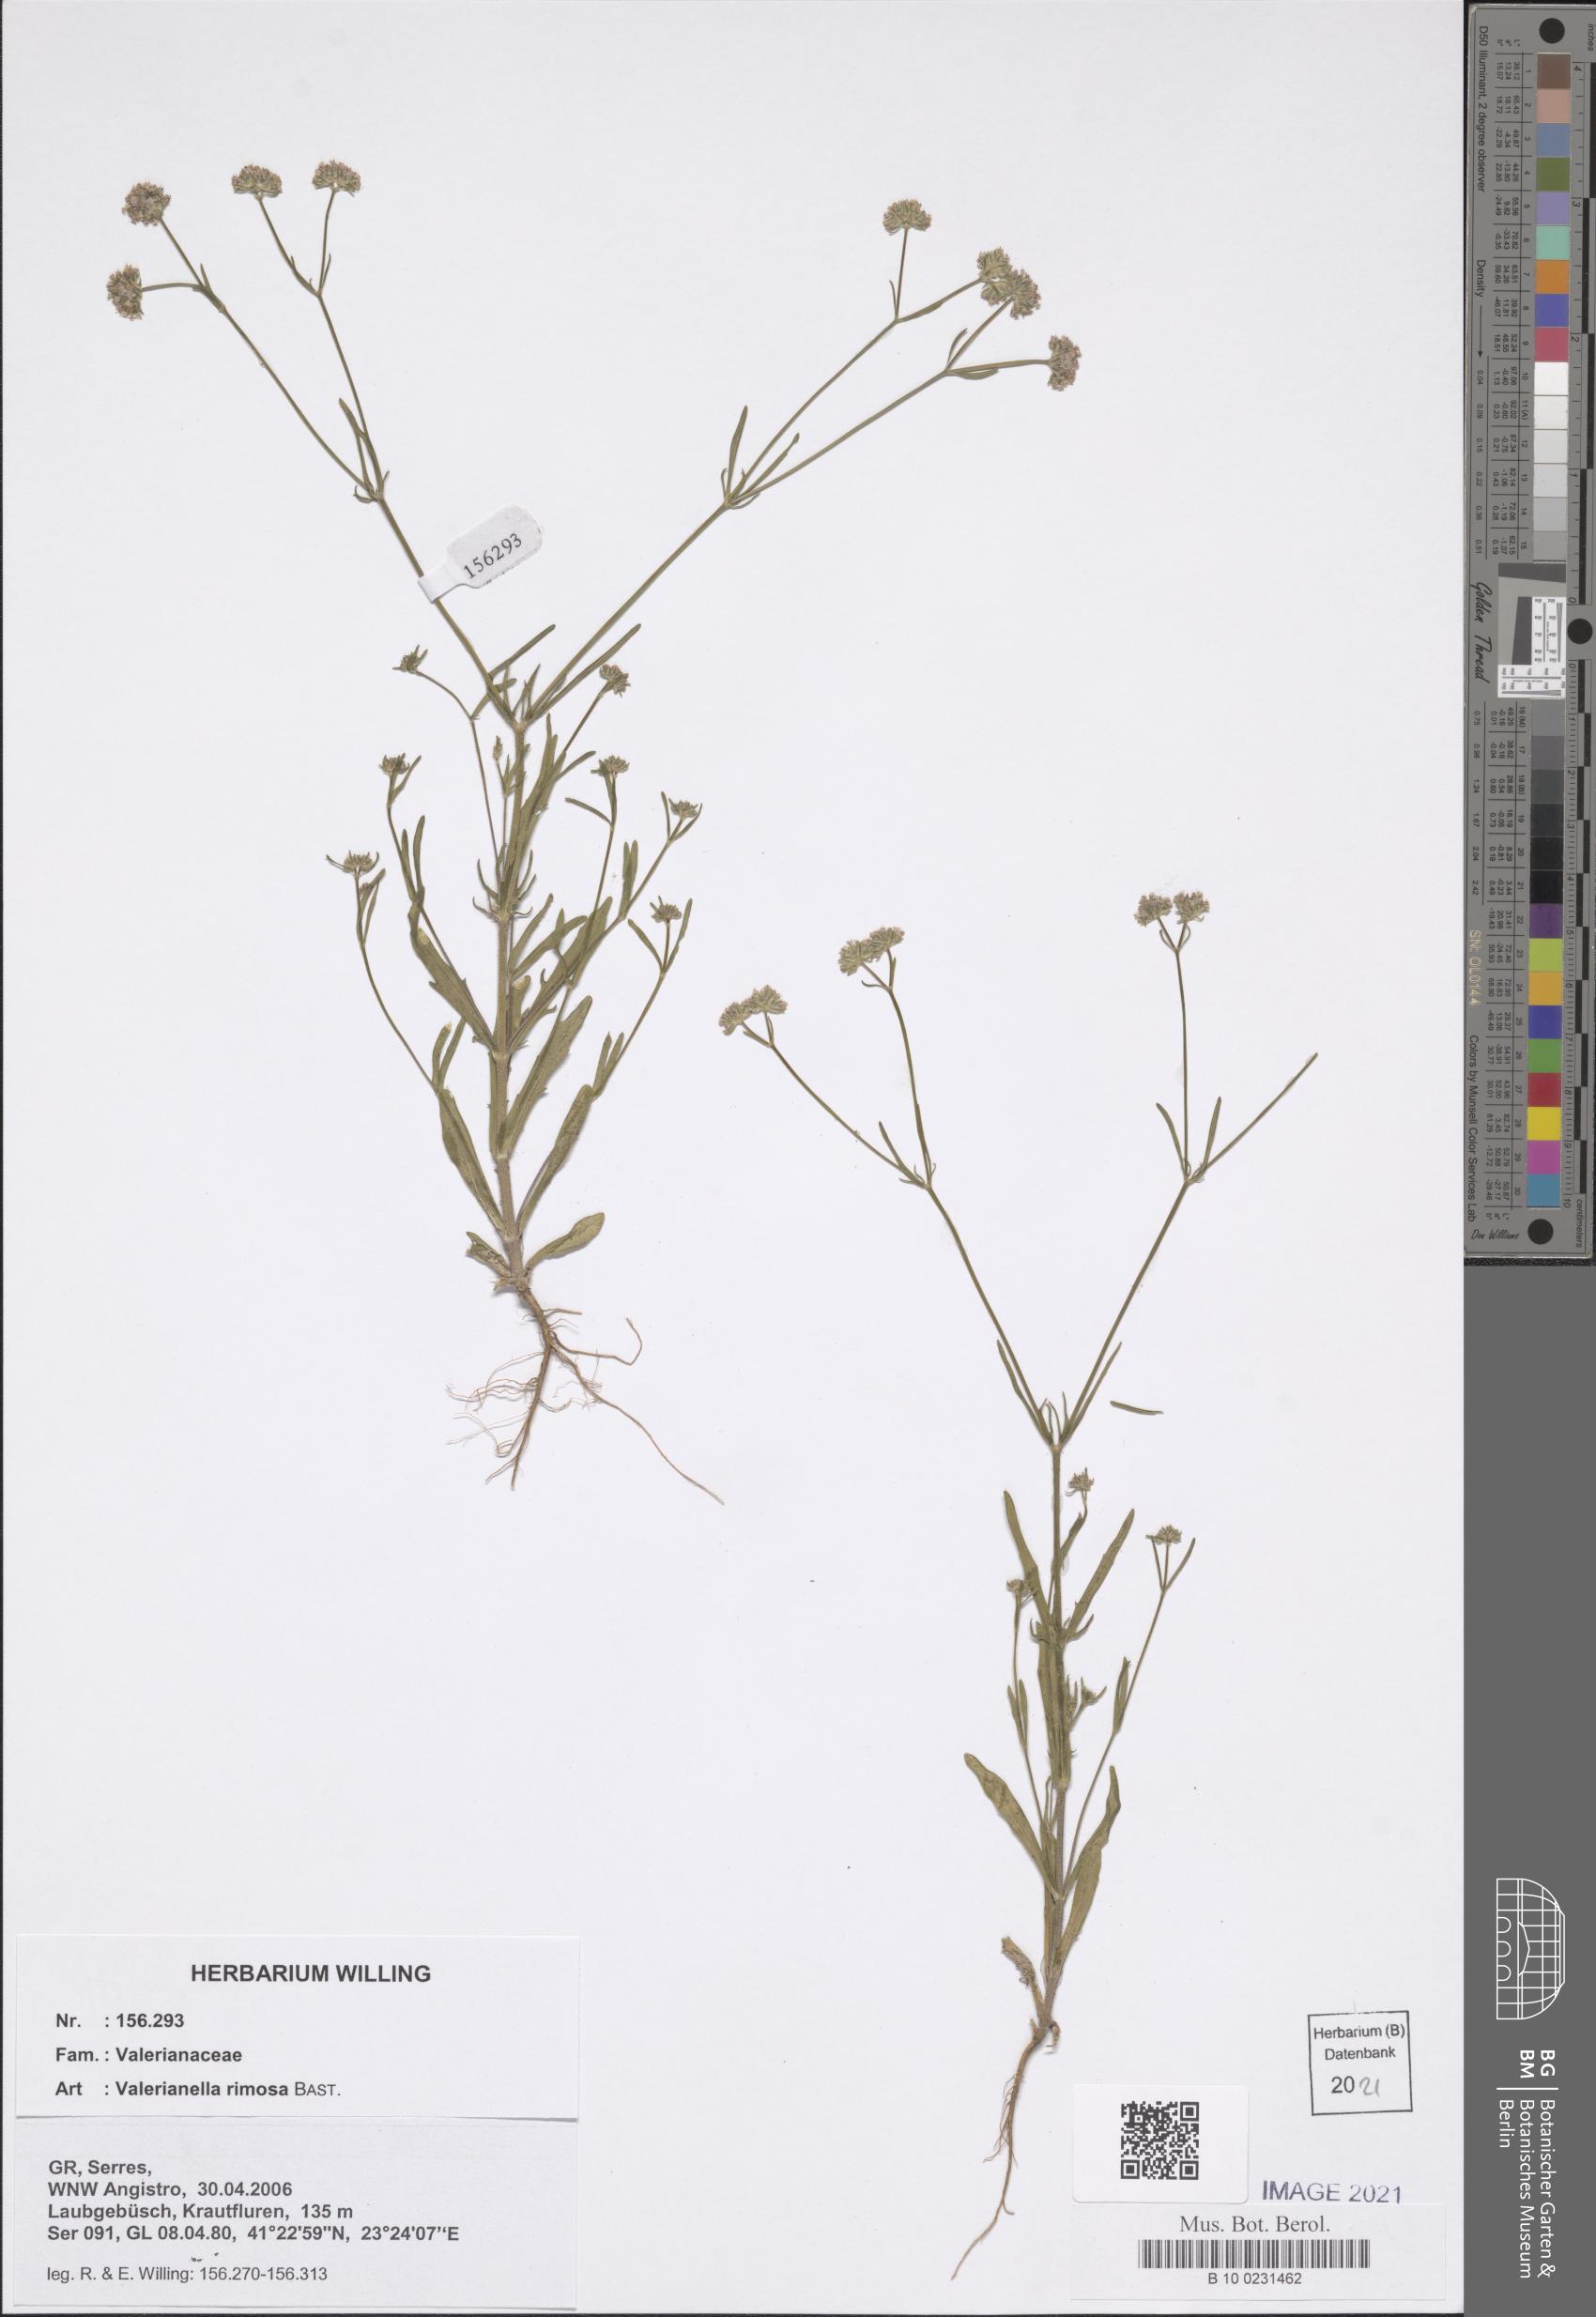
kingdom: Plantae
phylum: Tracheophyta
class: Magnoliopsida
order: Dipsacales
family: Caprifoliaceae
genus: Valerianella
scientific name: Valerianella rimosa
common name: Broad-fruited cornsalad
